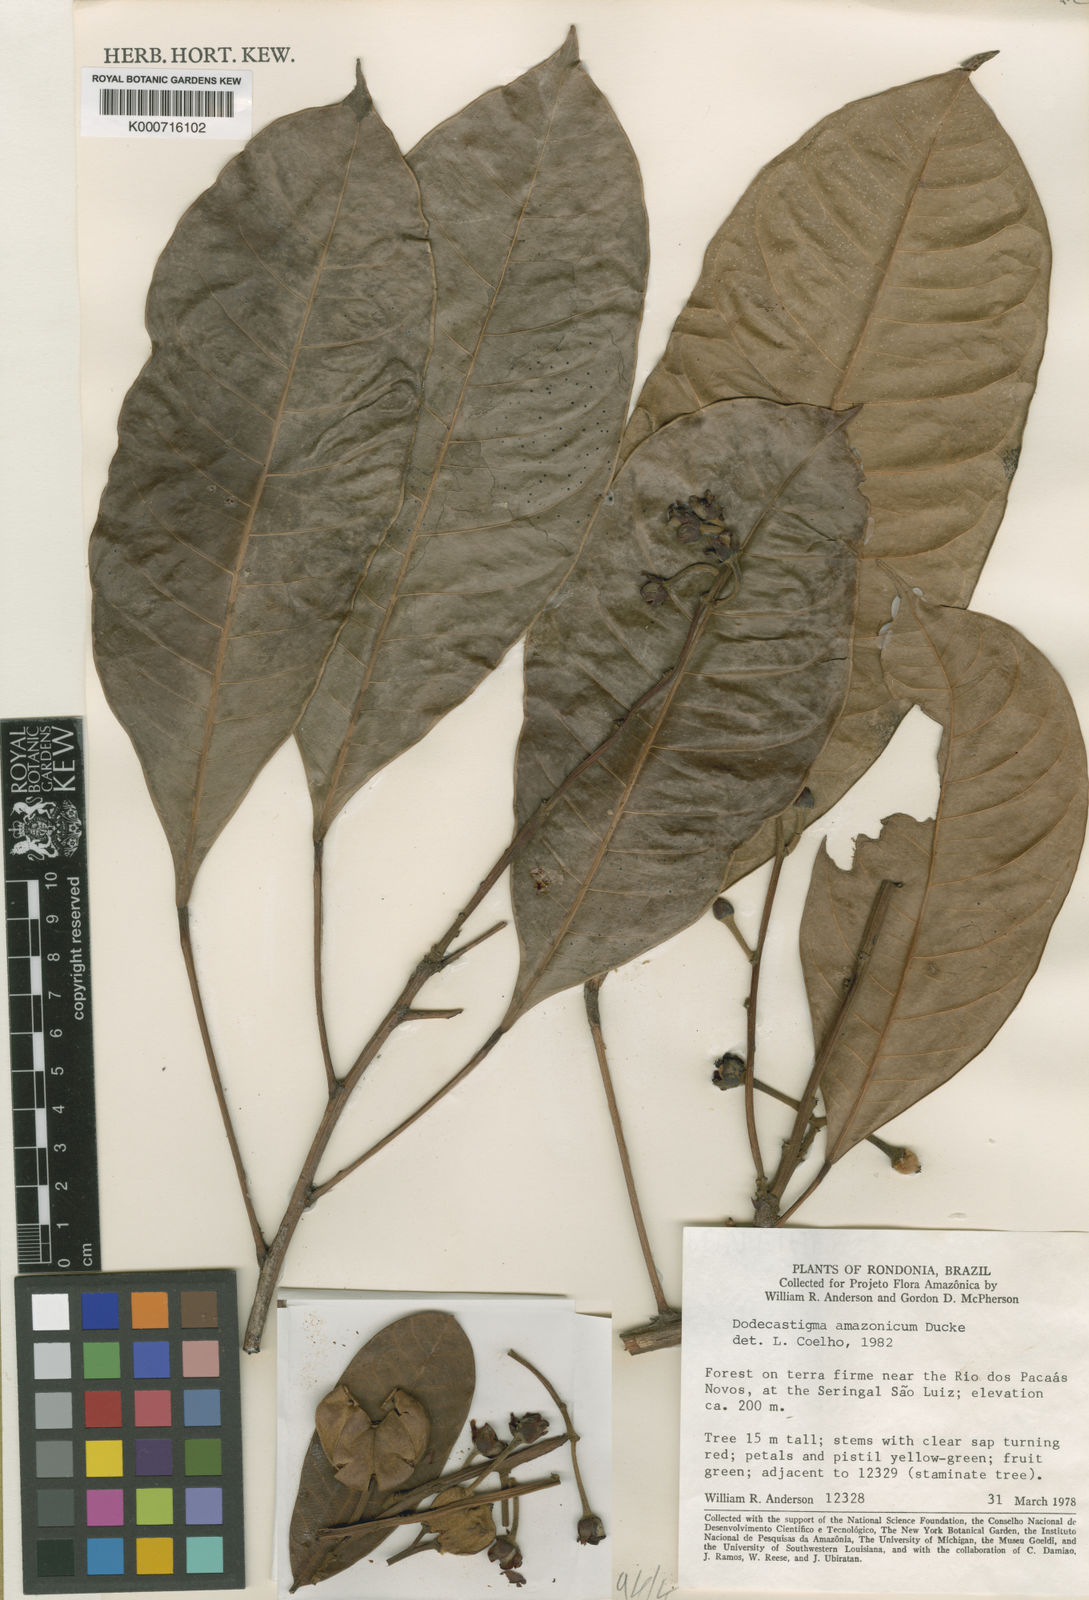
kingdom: Plantae
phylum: Tracheophyta
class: Magnoliopsida
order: Malpighiales
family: Euphorbiaceae
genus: Dodecastigma
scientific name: Dodecastigma amazonicum
